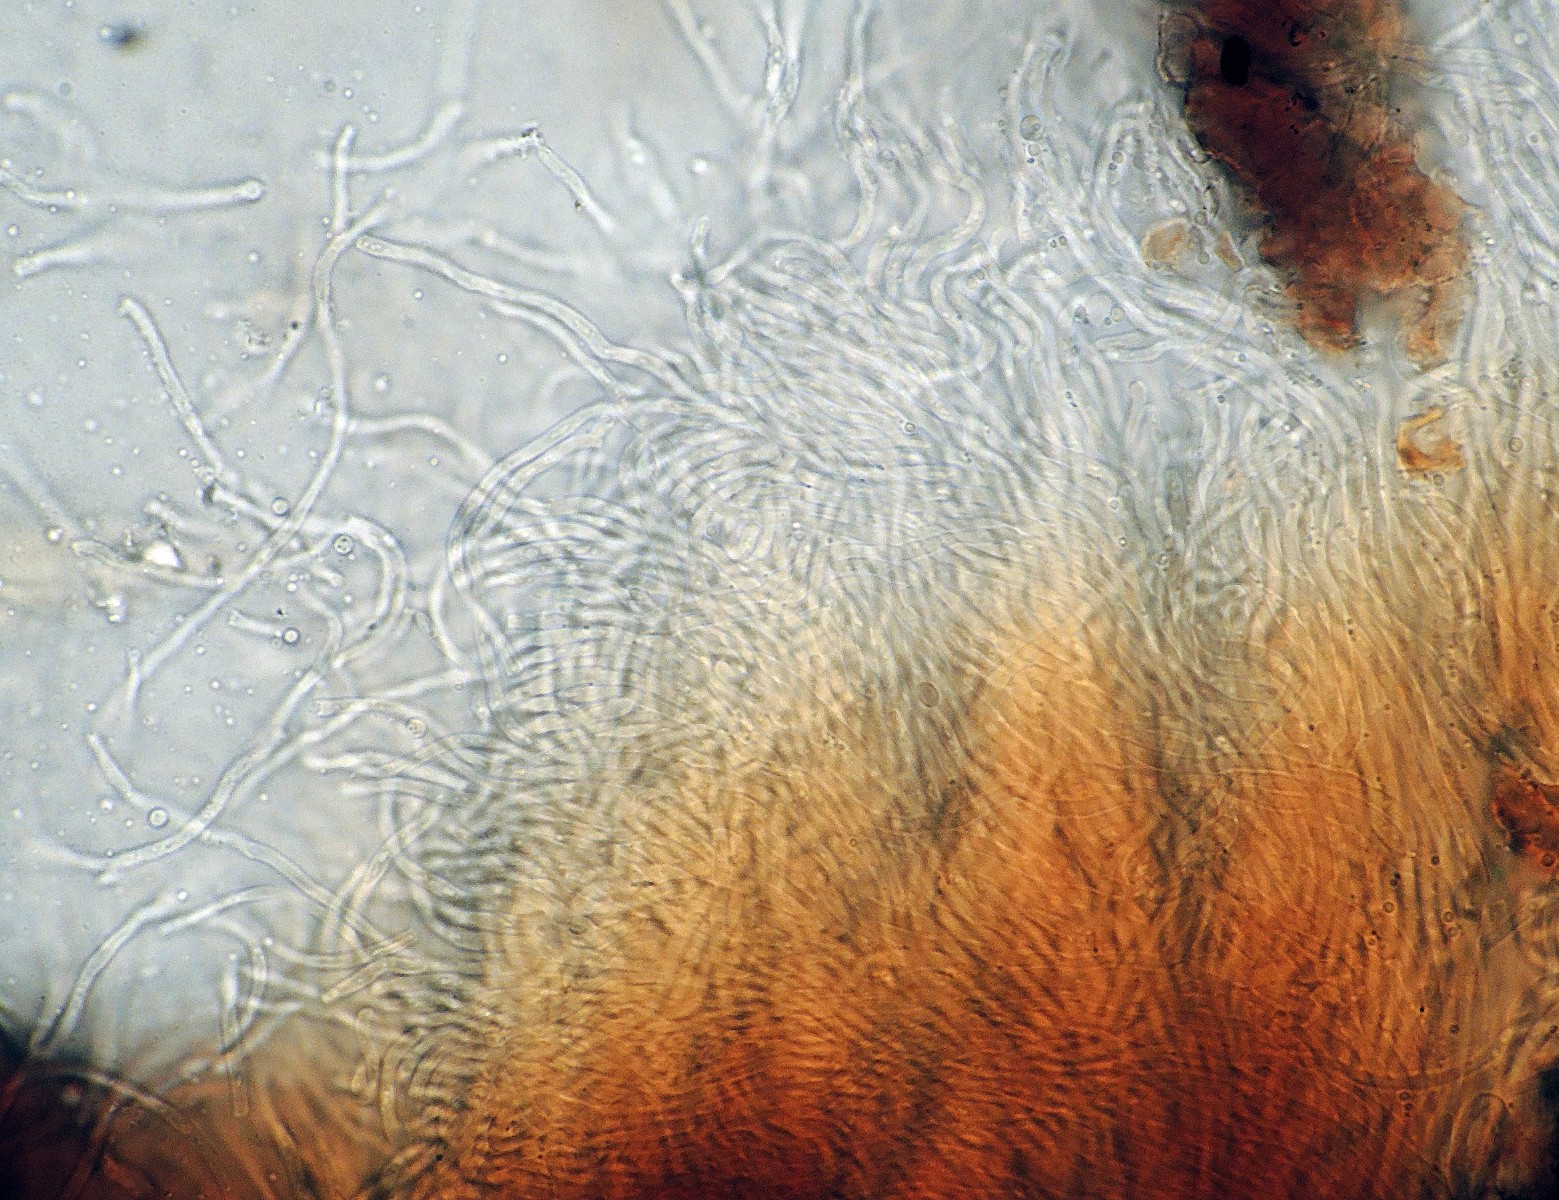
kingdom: Fungi
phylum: Ascomycota
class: Eurotiomycetes
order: Mycocaliciales
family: Sphinctrinaceae
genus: Sphinctrina
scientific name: Sphinctrina
